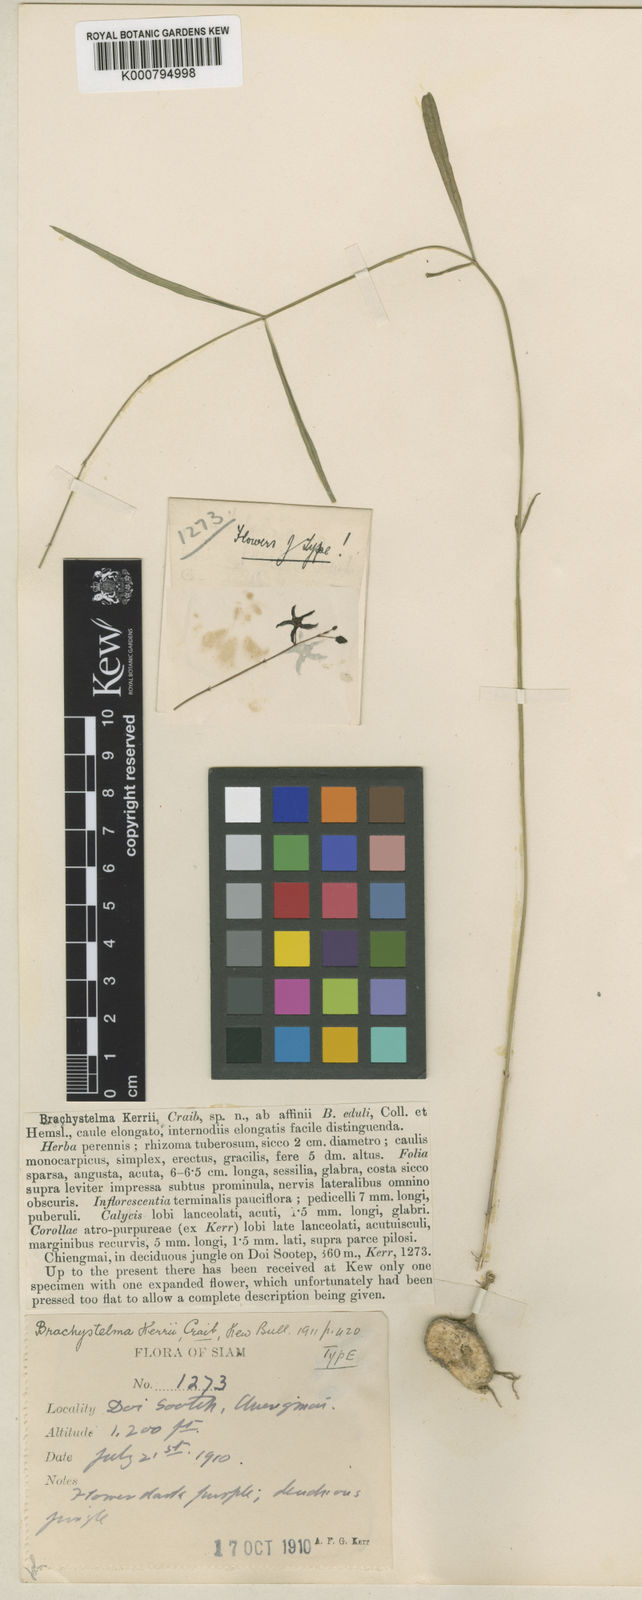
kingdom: Plantae
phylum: Tracheophyta
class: Magnoliopsida
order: Gentianales
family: Apocynaceae
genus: Ceropegia
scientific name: Ceropegia kerrii
